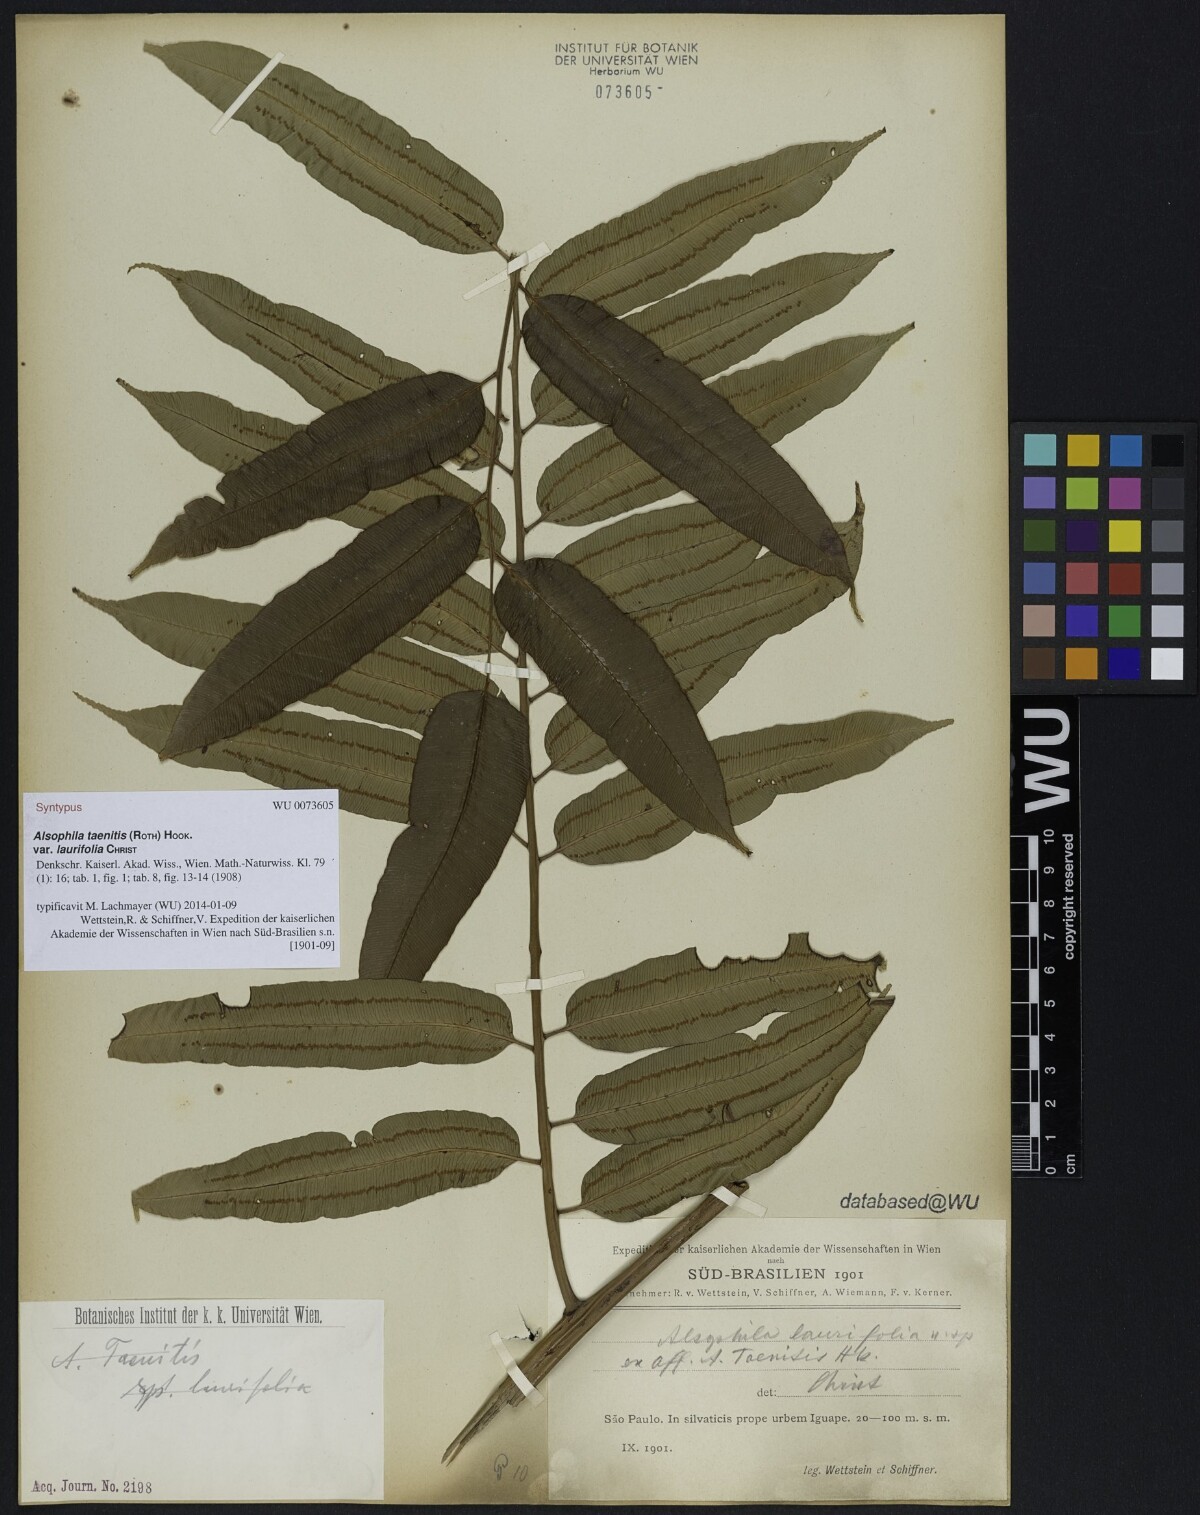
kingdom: Plantae
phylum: Tracheophyta
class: Polypodiopsida
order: Cyatheales
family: Cyatheaceae
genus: Cyathea
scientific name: Cyathea corcovadensis
